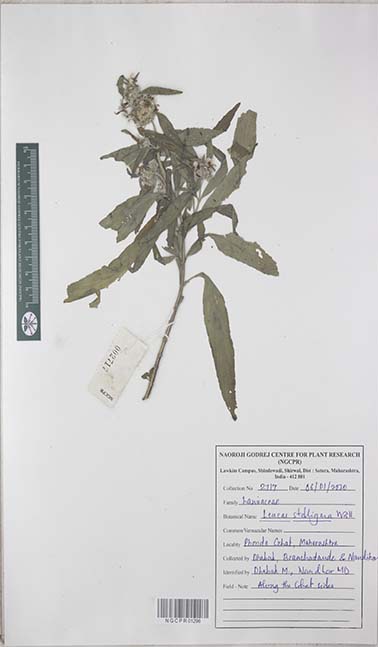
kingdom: Plantae
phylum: Tracheophyta
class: Magnoliopsida
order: Lamiales
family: Lamiaceae
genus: Leucas
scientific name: Leucas stelligera
